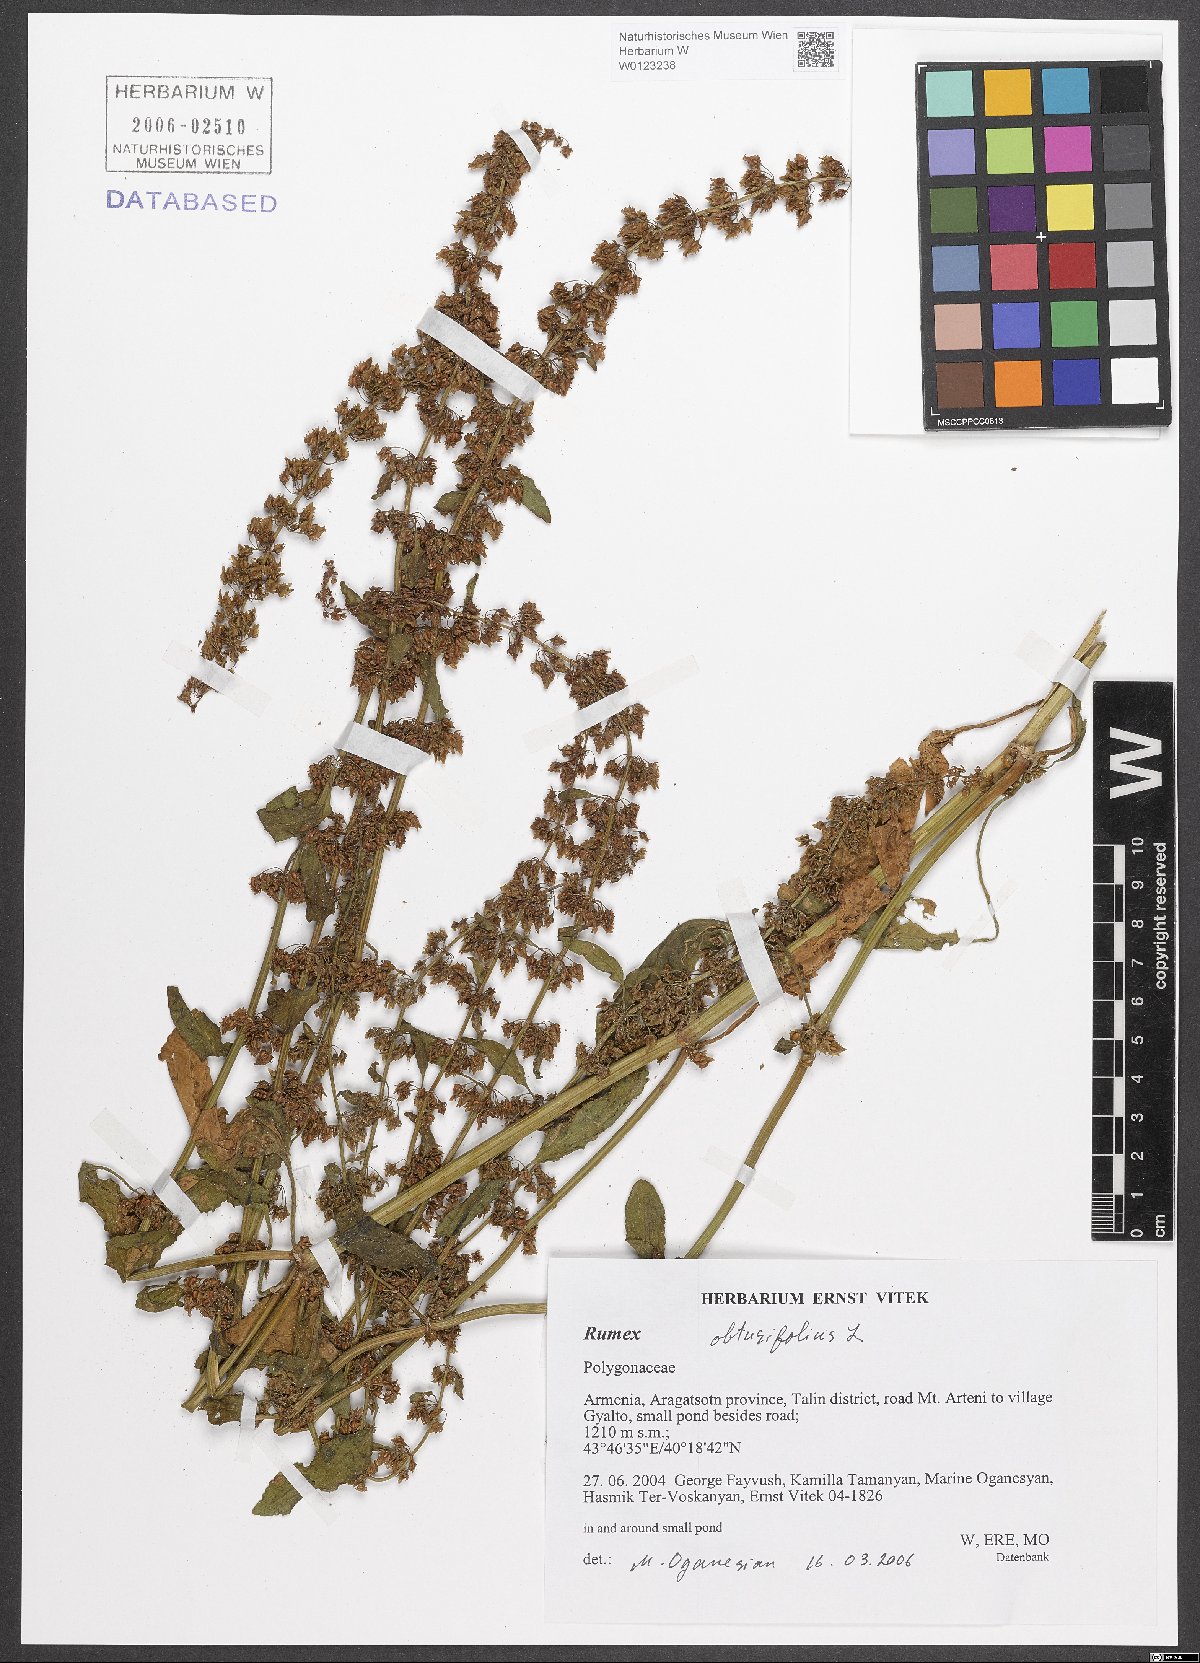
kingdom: Plantae
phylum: Tracheophyta
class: Magnoliopsida
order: Caryophyllales
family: Polygonaceae
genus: Rumex
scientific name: Rumex obtusifolius
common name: Bitter dock
